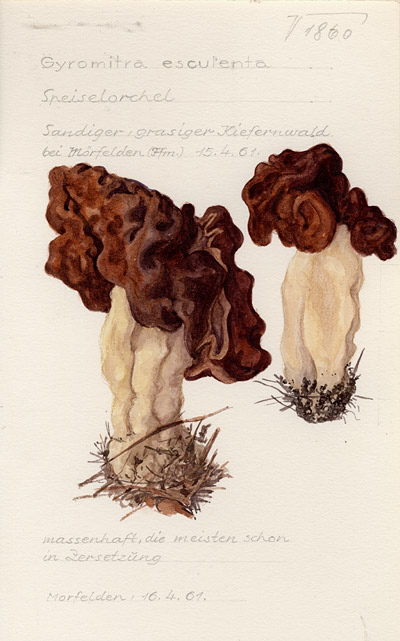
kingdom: Fungi
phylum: Ascomycota
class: Pezizomycetes
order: Pezizales
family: Discinaceae
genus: Gyromitra
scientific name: Gyromitra esculenta
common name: False morel
